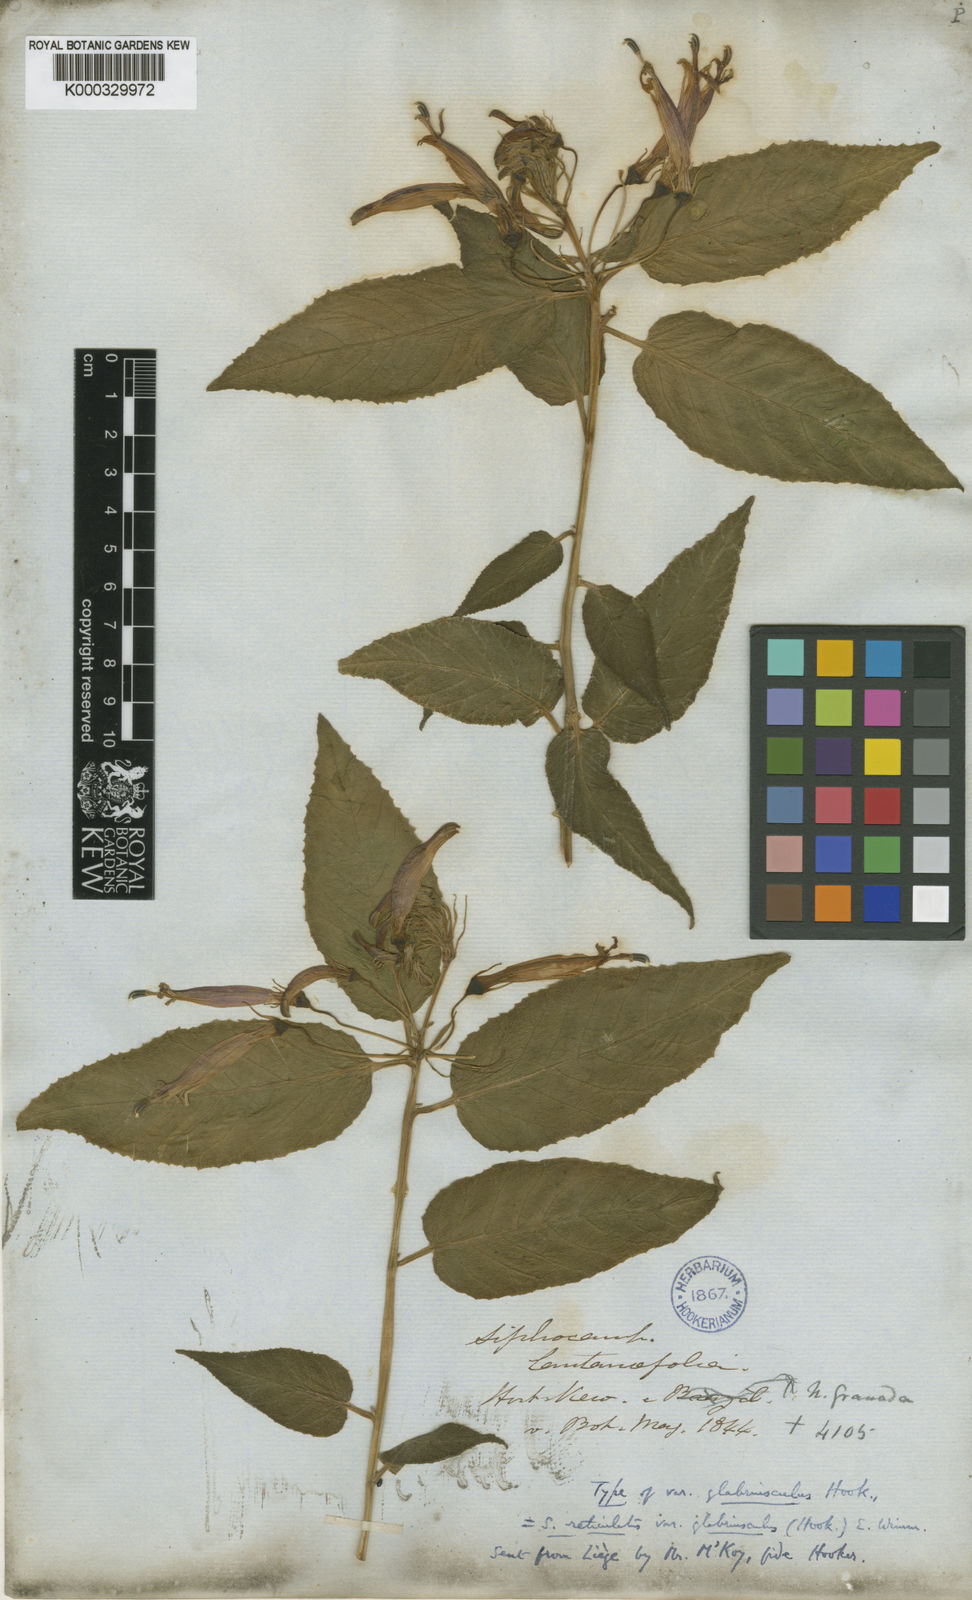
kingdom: Plantae
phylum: Tracheophyta
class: Magnoliopsida
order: Asterales
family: Campanulaceae
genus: Siphocampylus
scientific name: Siphocampylus reticulatus
